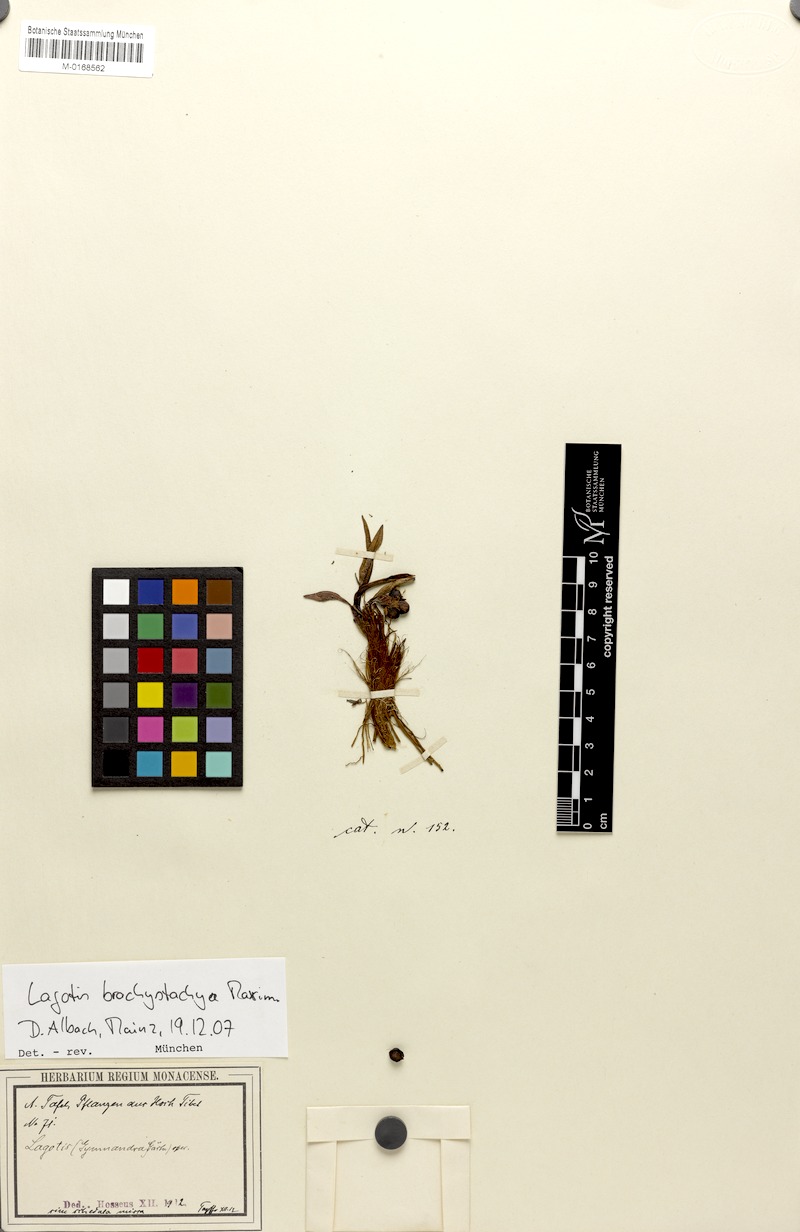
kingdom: Plantae
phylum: Tracheophyta
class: Magnoliopsida
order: Lamiales
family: Plantaginaceae
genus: Lagotis
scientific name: Lagotis brachystachya
